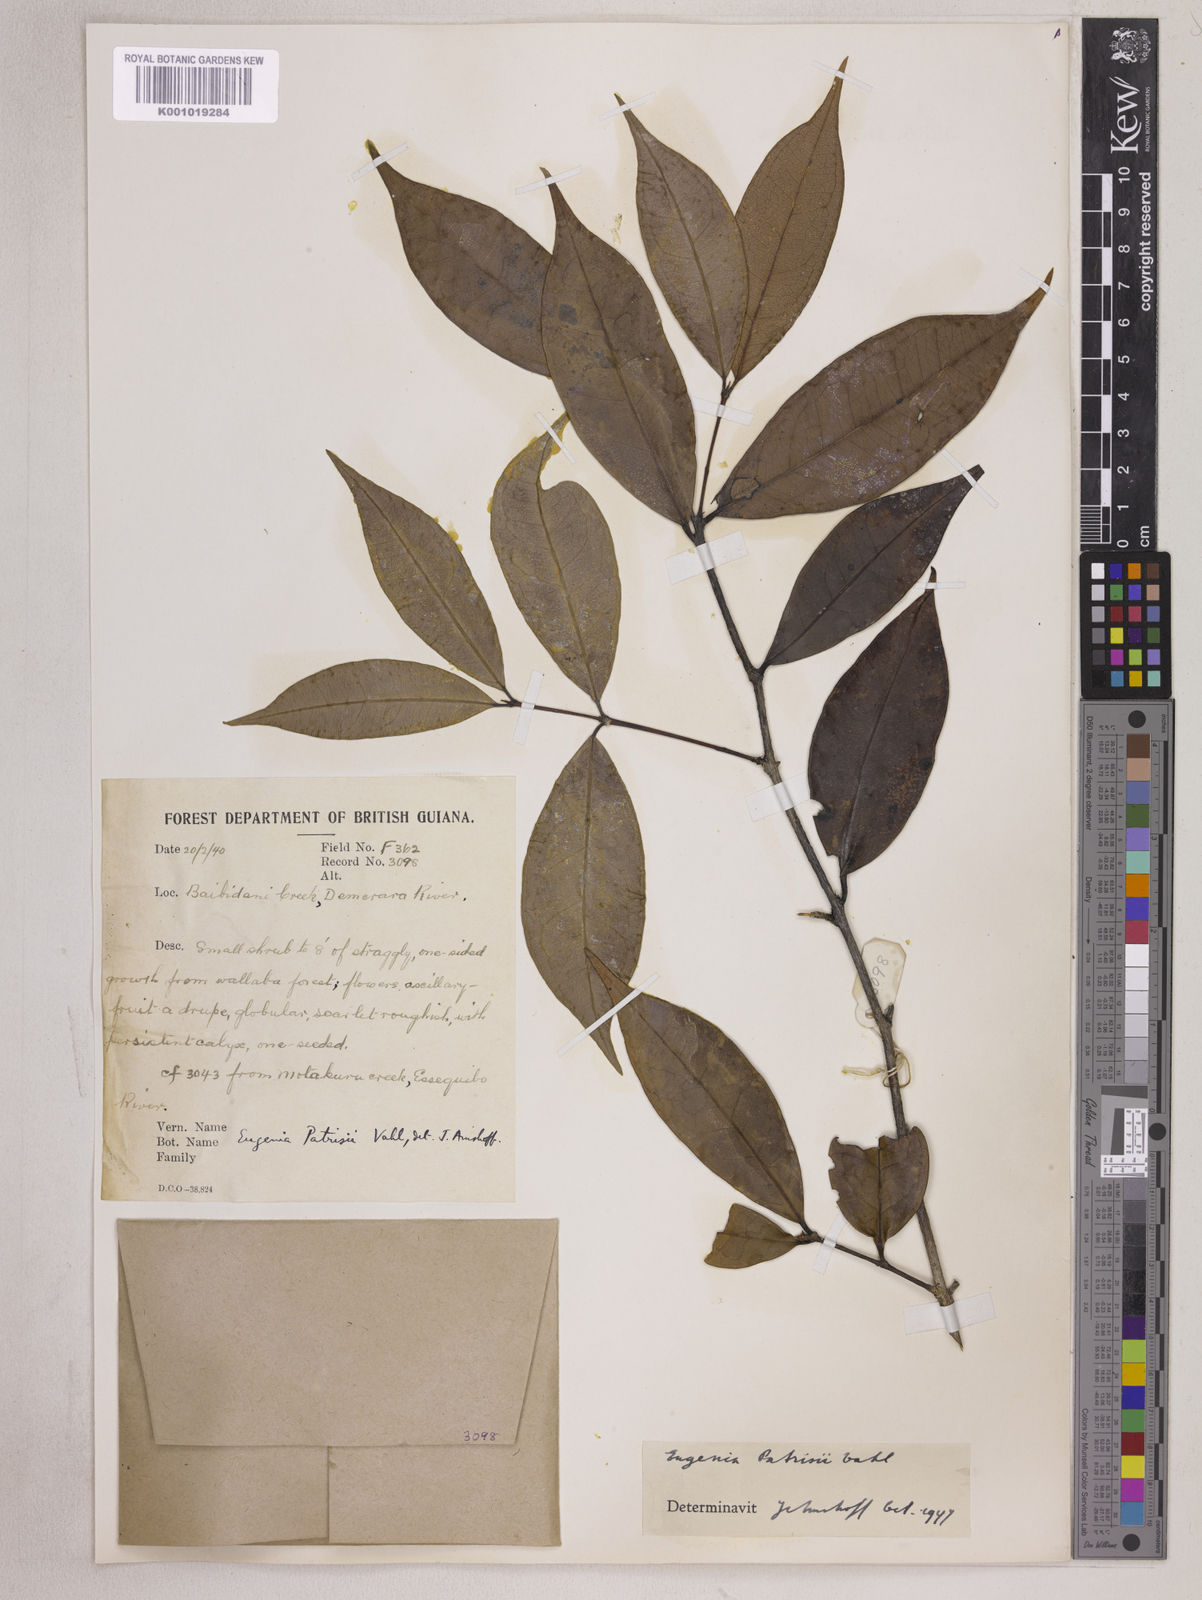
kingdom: Plantae
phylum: Tracheophyta
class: Magnoliopsida
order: Myrtales
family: Myrtaceae
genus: Eugenia
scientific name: Eugenia patrisii
